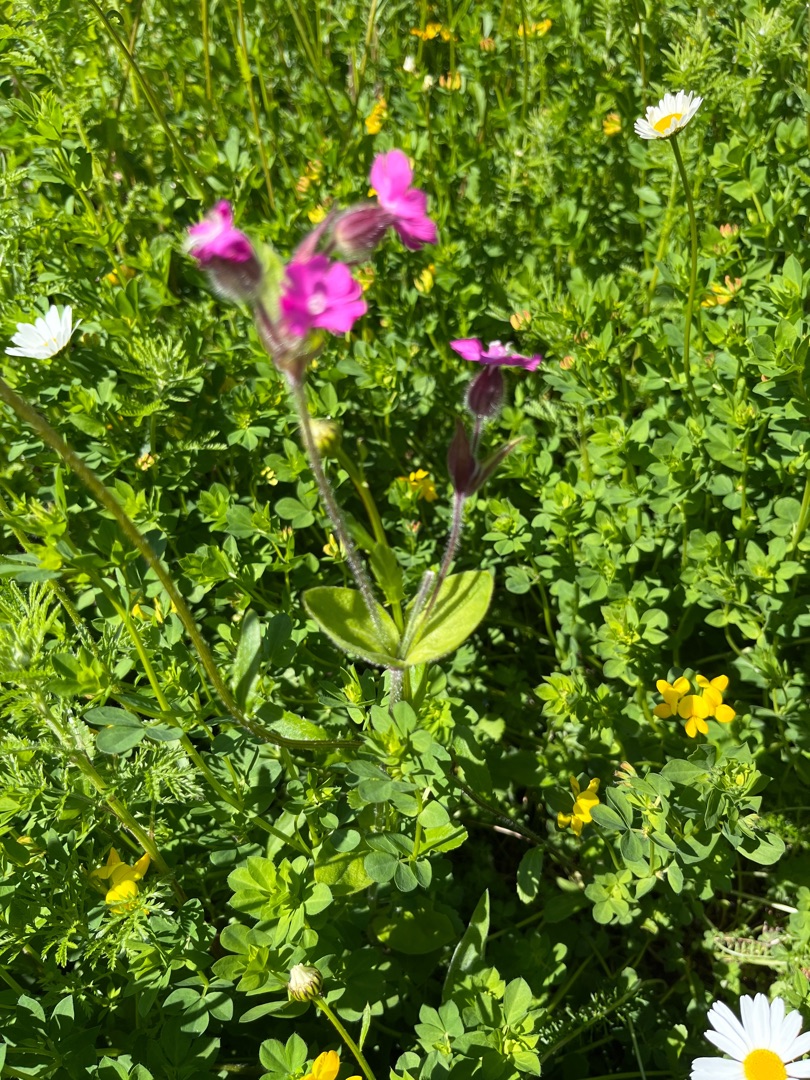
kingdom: Plantae
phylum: Tracheophyta
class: Magnoliopsida
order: Caryophyllales
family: Caryophyllaceae
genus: Silene
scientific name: Silene dioica
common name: Dagpragtstjerne
